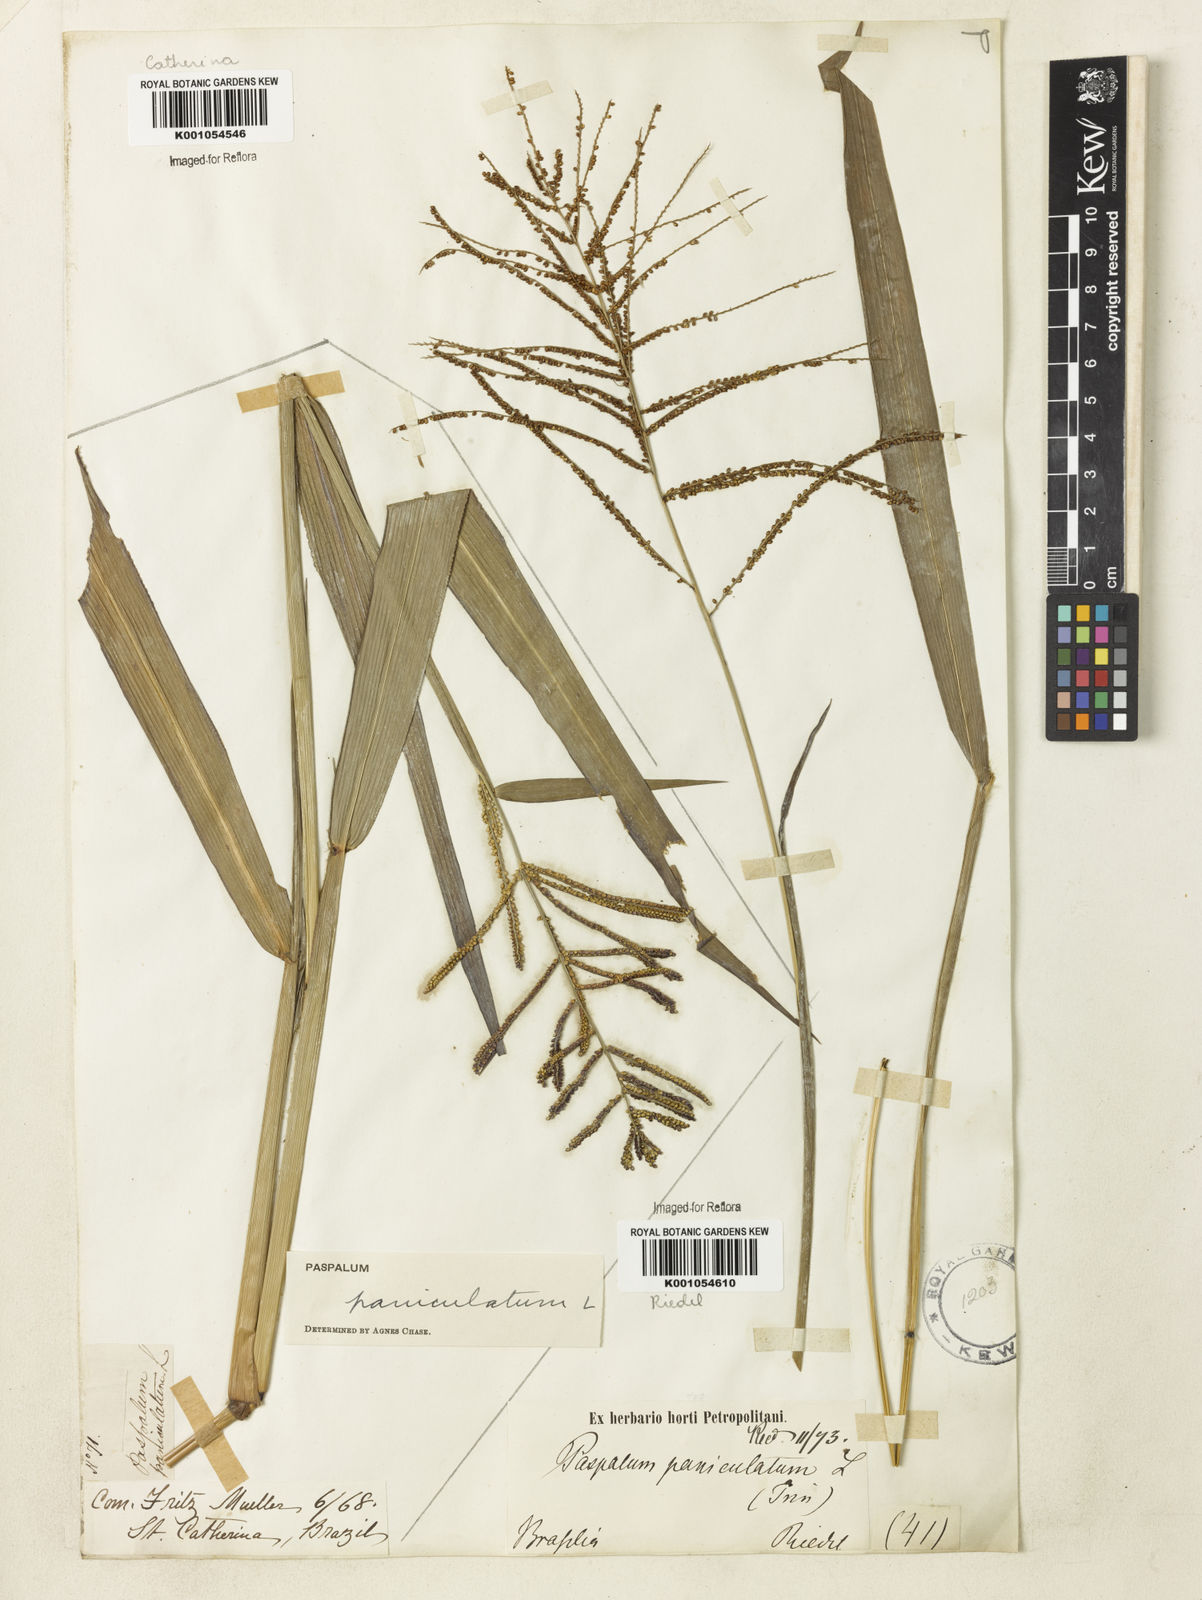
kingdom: Plantae
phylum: Tracheophyta
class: Liliopsida
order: Poales
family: Poaceae
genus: Paspalum
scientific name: Paspalum paniculatum
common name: Arrocillo
